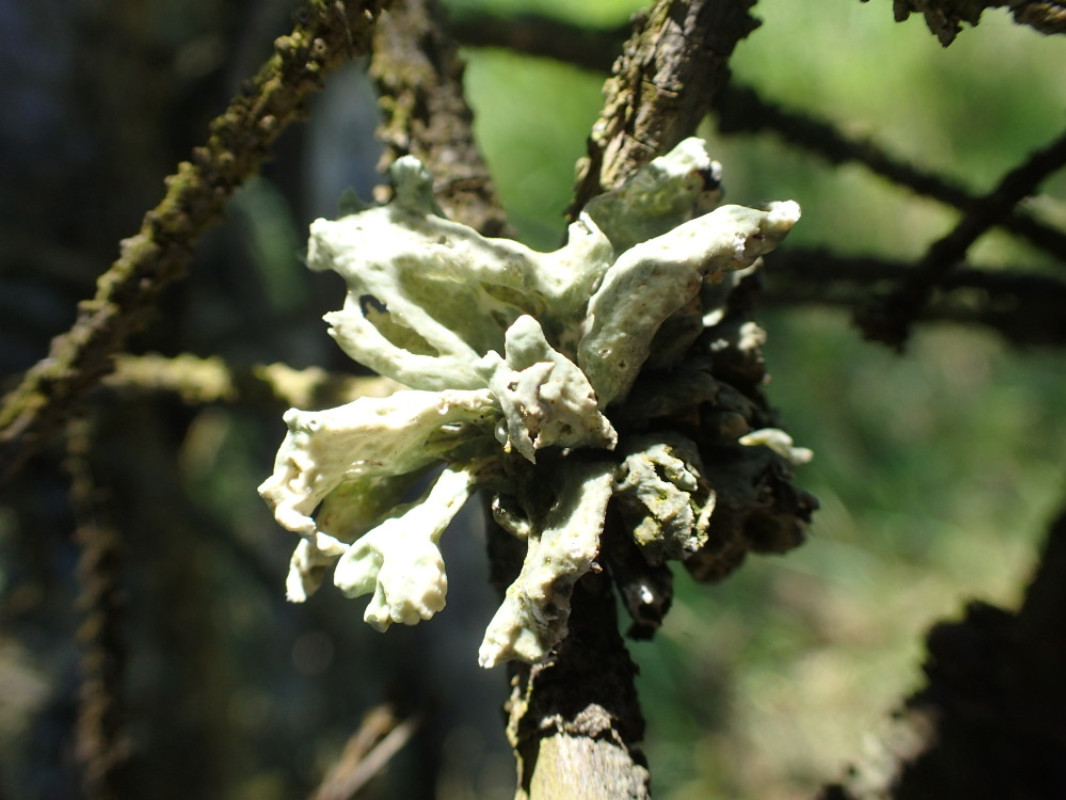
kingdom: Fungi
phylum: Ascomycota
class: Lecanoromycetes
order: Lecanorales
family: Ramalinaceae
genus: Ramalina
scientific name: Ramalina fastigiata
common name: tue-grenlav
